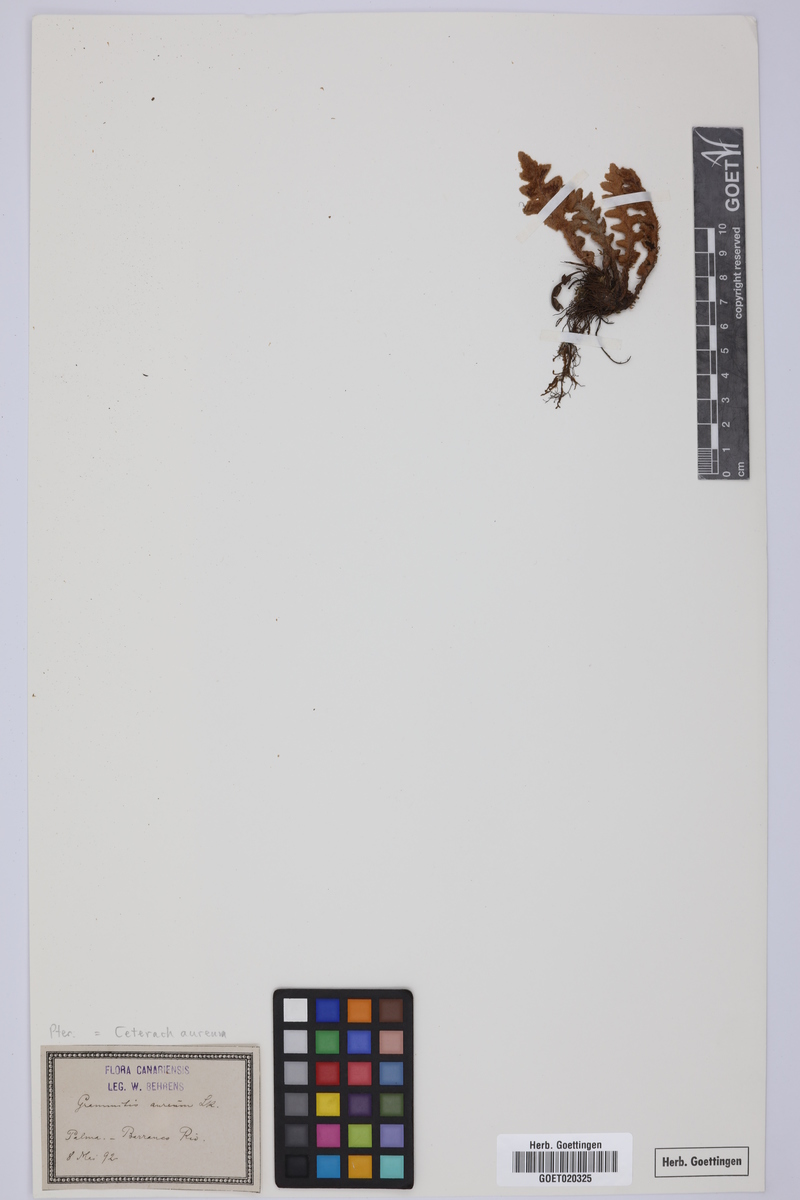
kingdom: Plantae
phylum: Tracheophyta
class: Polypodiopsida
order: Polypodiales
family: Aspleniaceae
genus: Asplenium
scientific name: Asplenium aureum
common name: Golden rustyback fern
